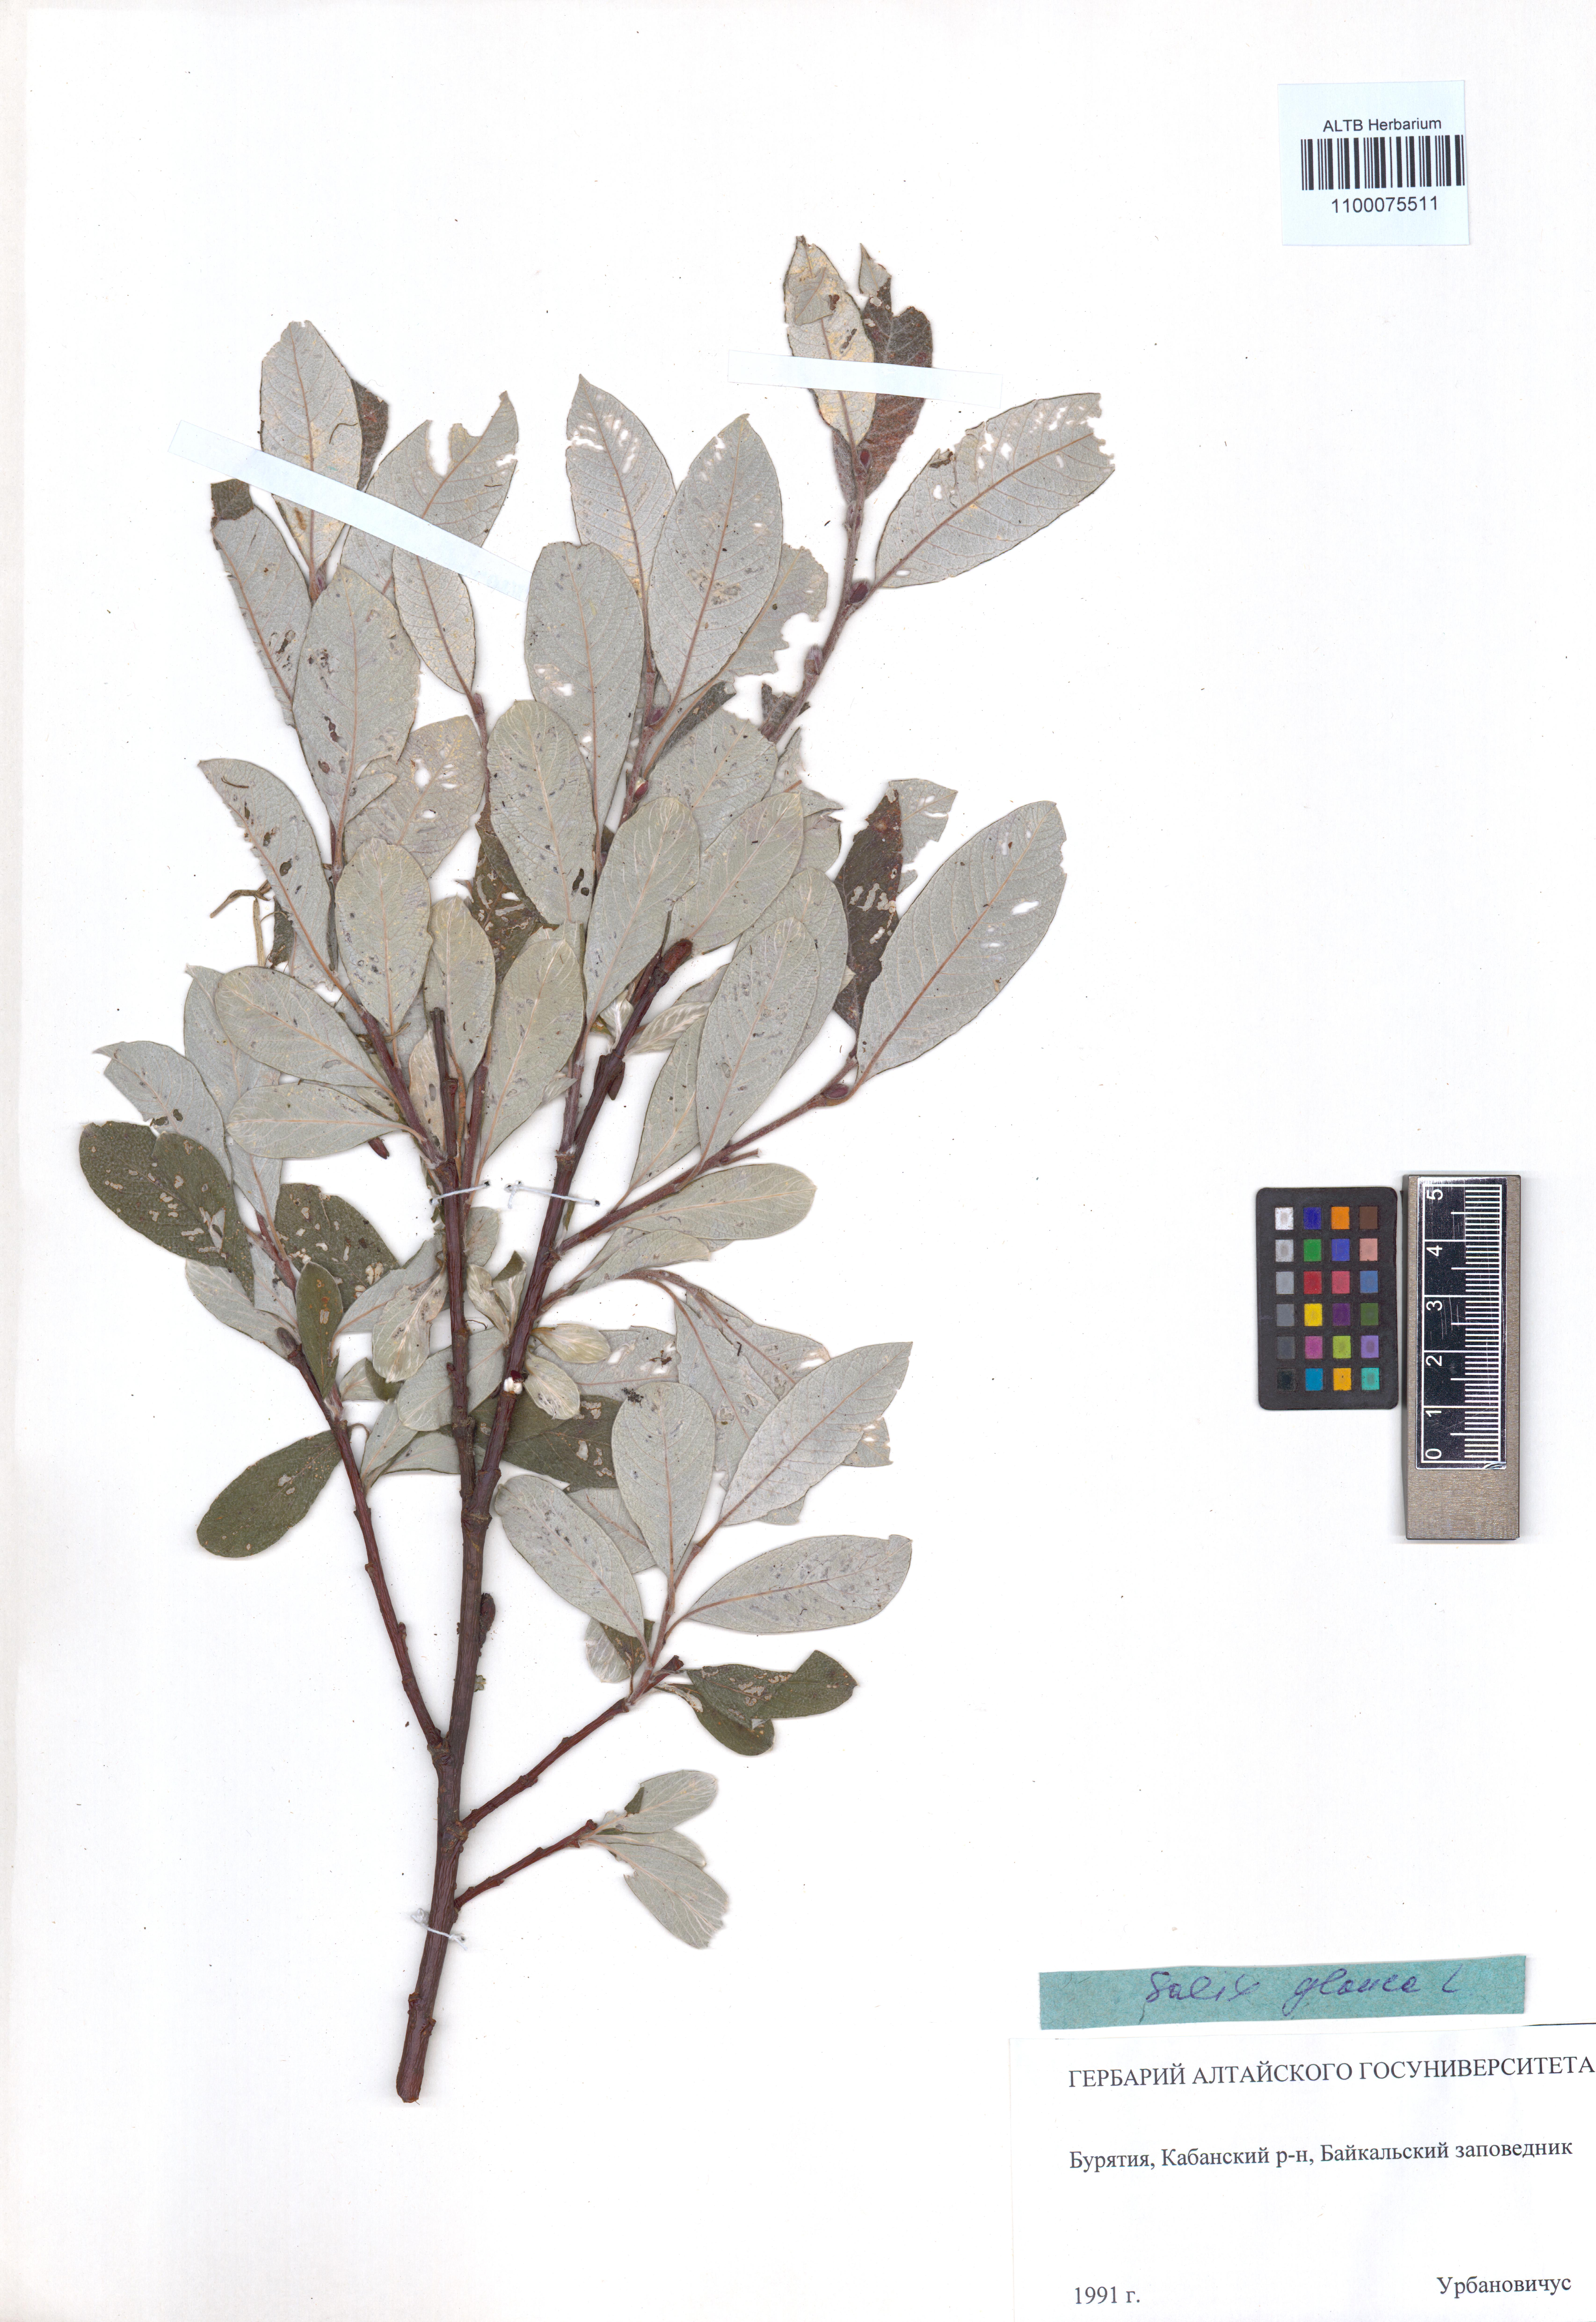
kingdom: Plantae
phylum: Tracheophyta
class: Magnoliopsida
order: Malpighiales
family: Salicaceae
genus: Salix
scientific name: Salix glauca
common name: Glaucous willow
